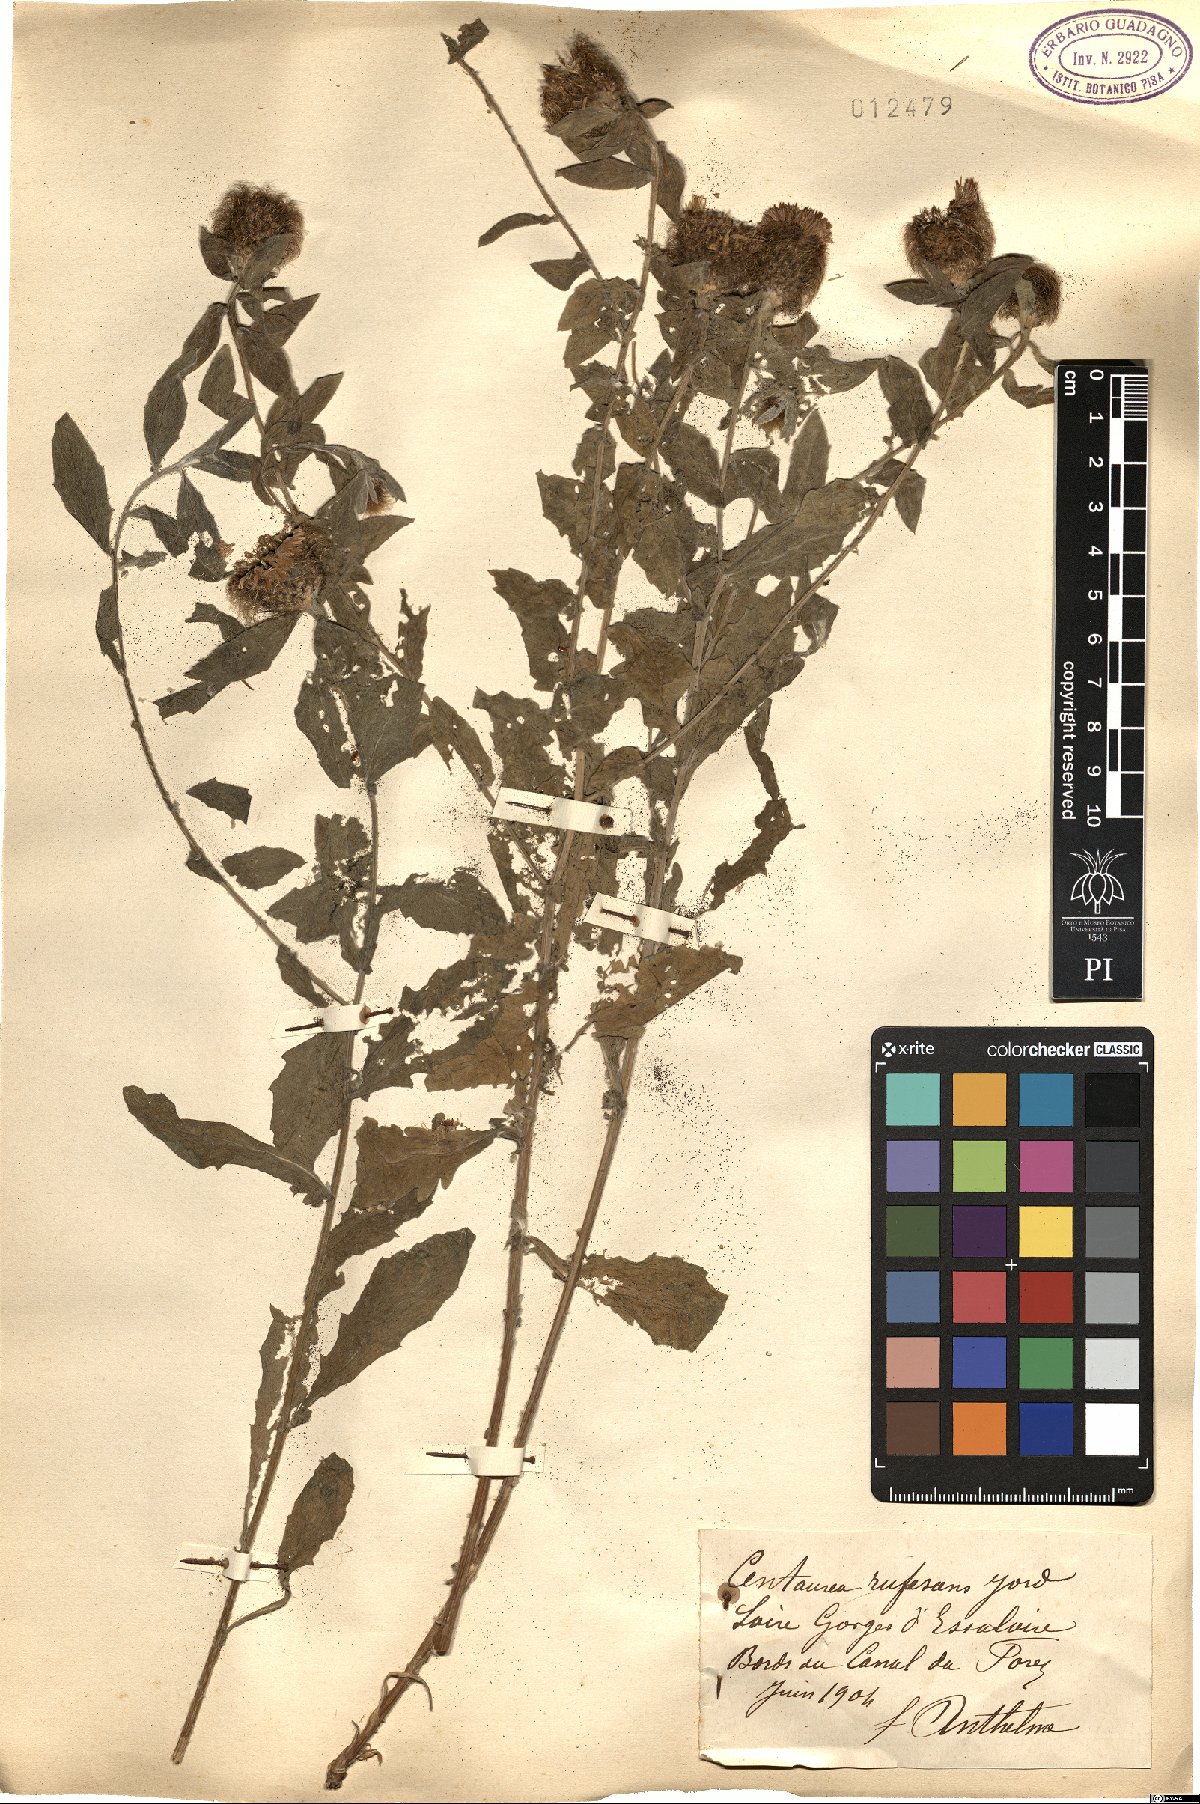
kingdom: Plantae
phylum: Tracheophyta
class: Magnoliopsida
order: Asterales
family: Asteraceae
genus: Centaurea
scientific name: Centaurea pectinata
